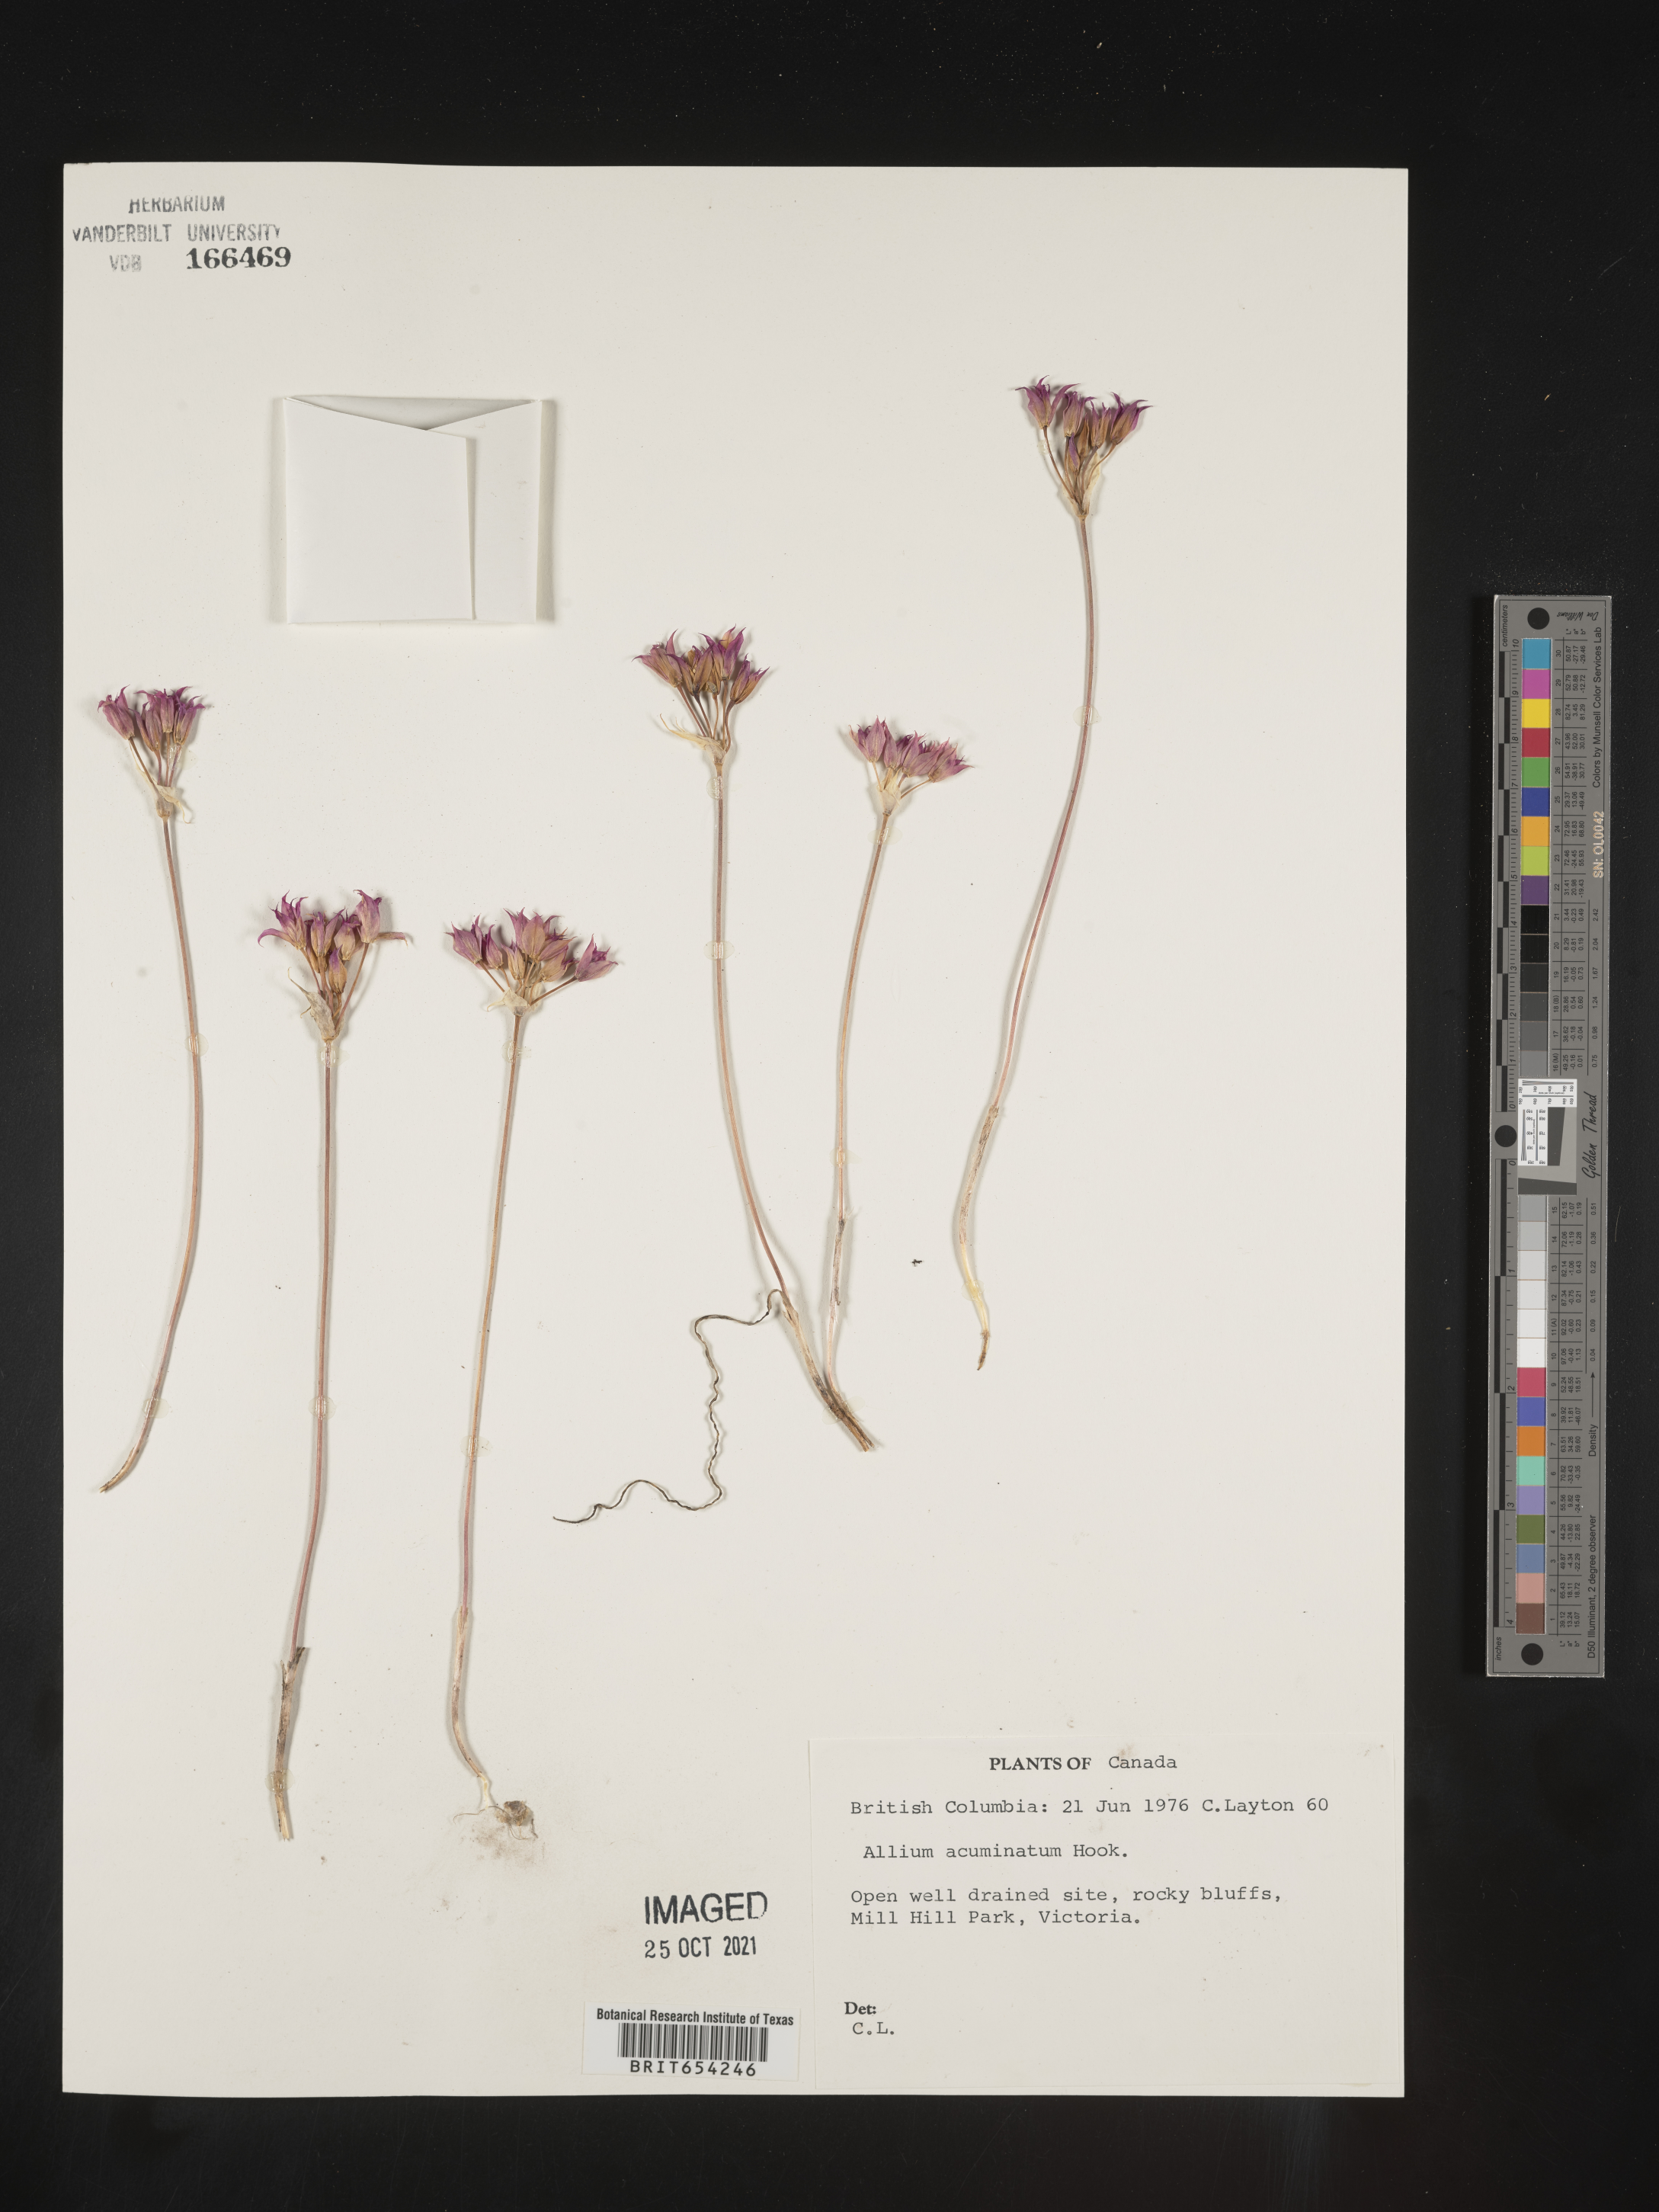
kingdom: Plantae
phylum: Tracheophyta
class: Liliopsida
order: Asparagales
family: Amaryllidaceae
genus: Allium
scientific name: Allium acuminatum
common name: Hooker's onion
